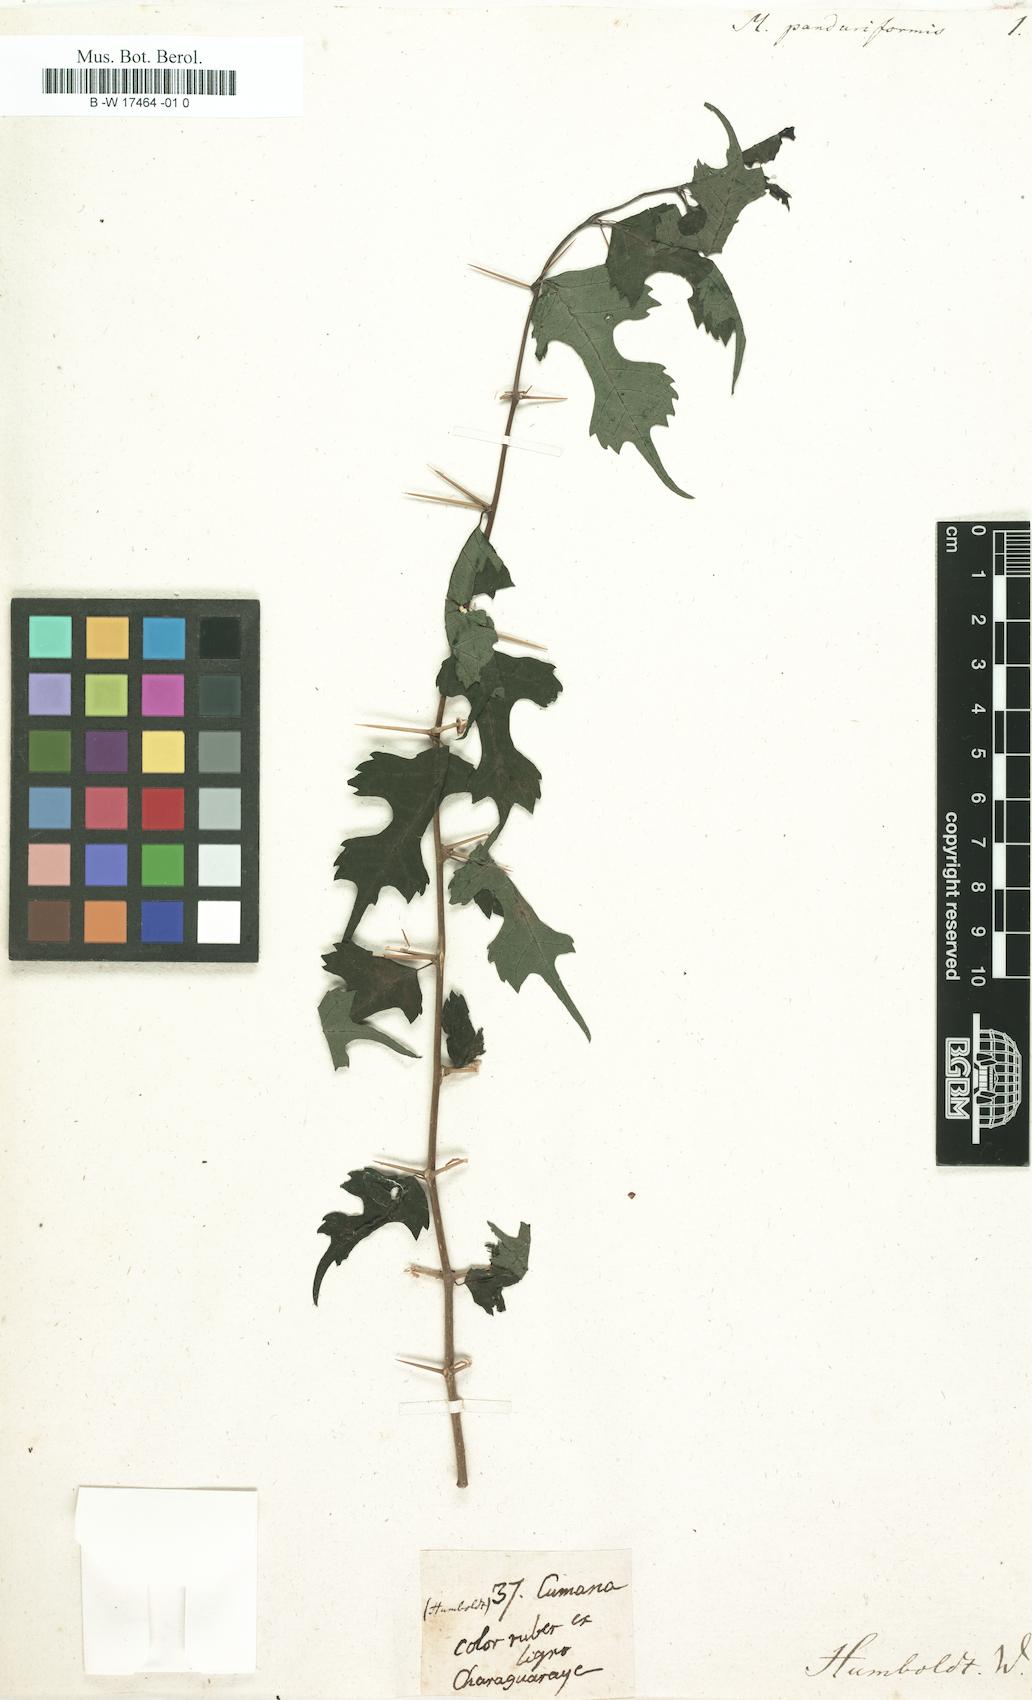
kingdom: Plantae
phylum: Tracheophyta
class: Magnoliopsida
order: Rosales
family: Moraceae
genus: Morus
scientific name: Morus
